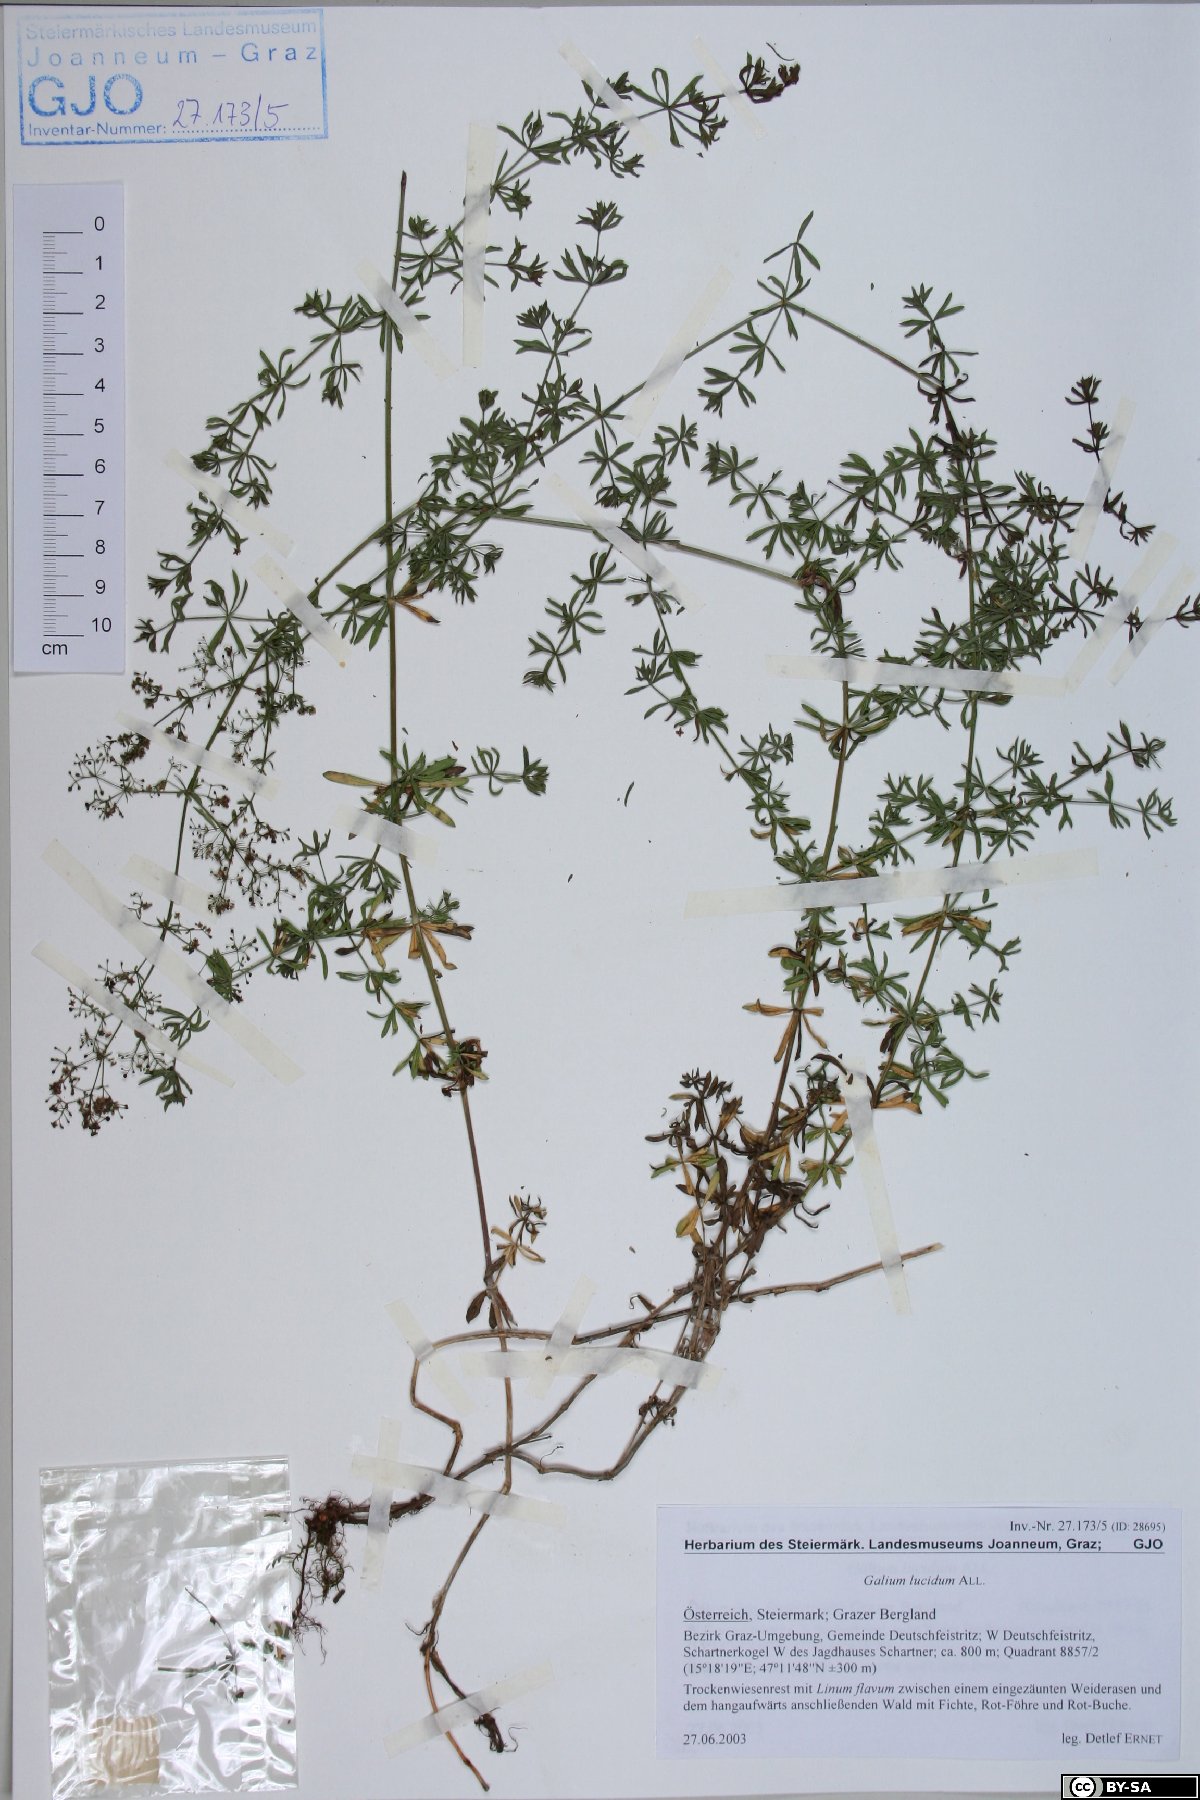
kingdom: Plantae
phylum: Tracheophyta
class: Magnoliopsida
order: Gentianales
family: Rubiaceae
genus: Galium
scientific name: Galium lucidum
